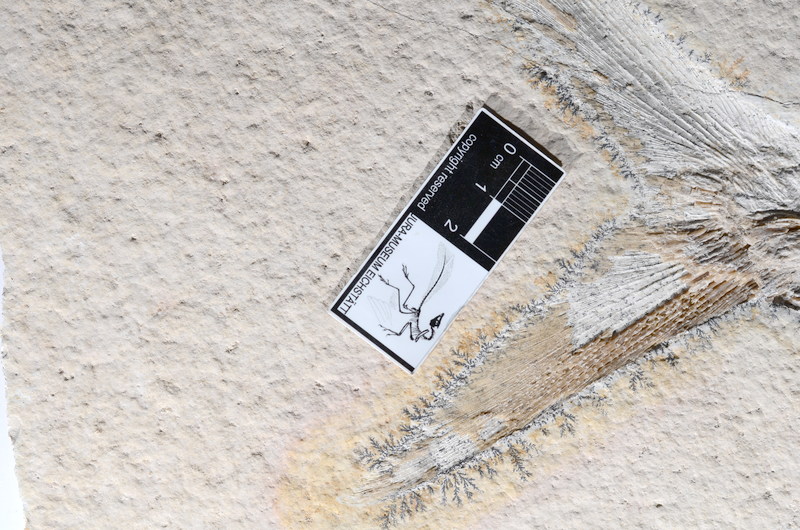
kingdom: Animalia
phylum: Chordata
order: Amiiformes
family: Caturidae
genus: Caturus
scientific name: Caturus
